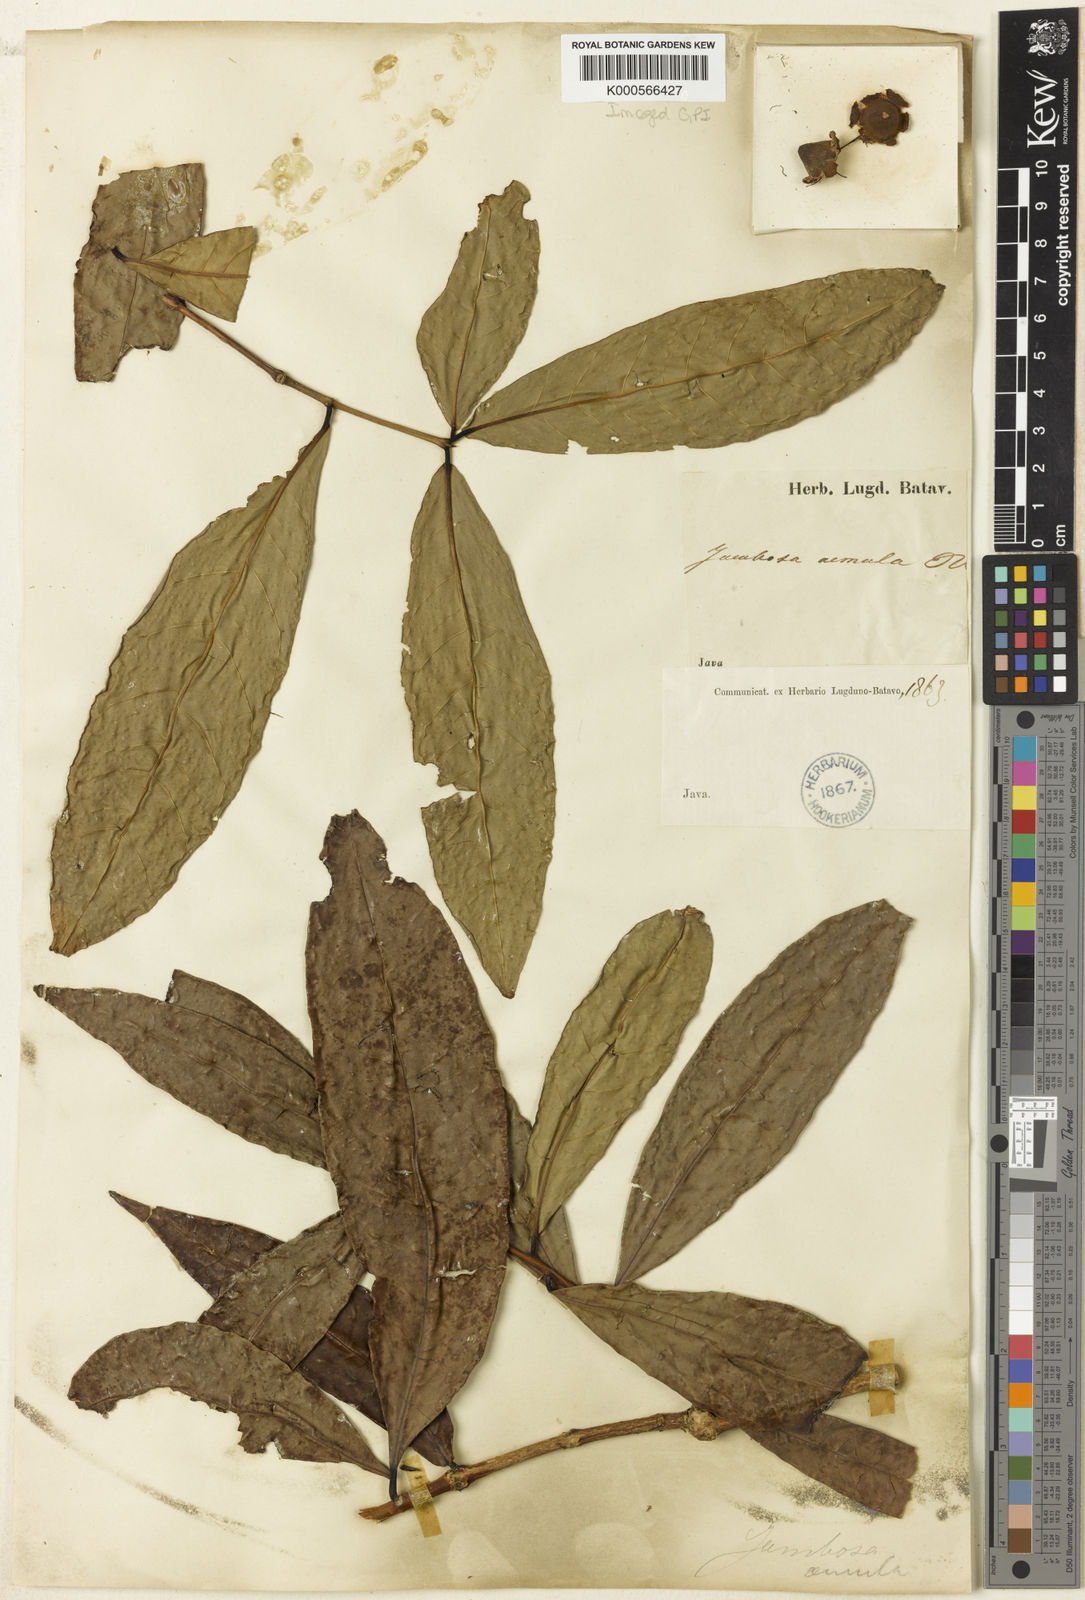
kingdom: Plantae
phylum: Tracheophyta
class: Magnoliopsida
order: Myrtales
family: Myrtaceae
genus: Syzygium
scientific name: Syzygium aemulum
